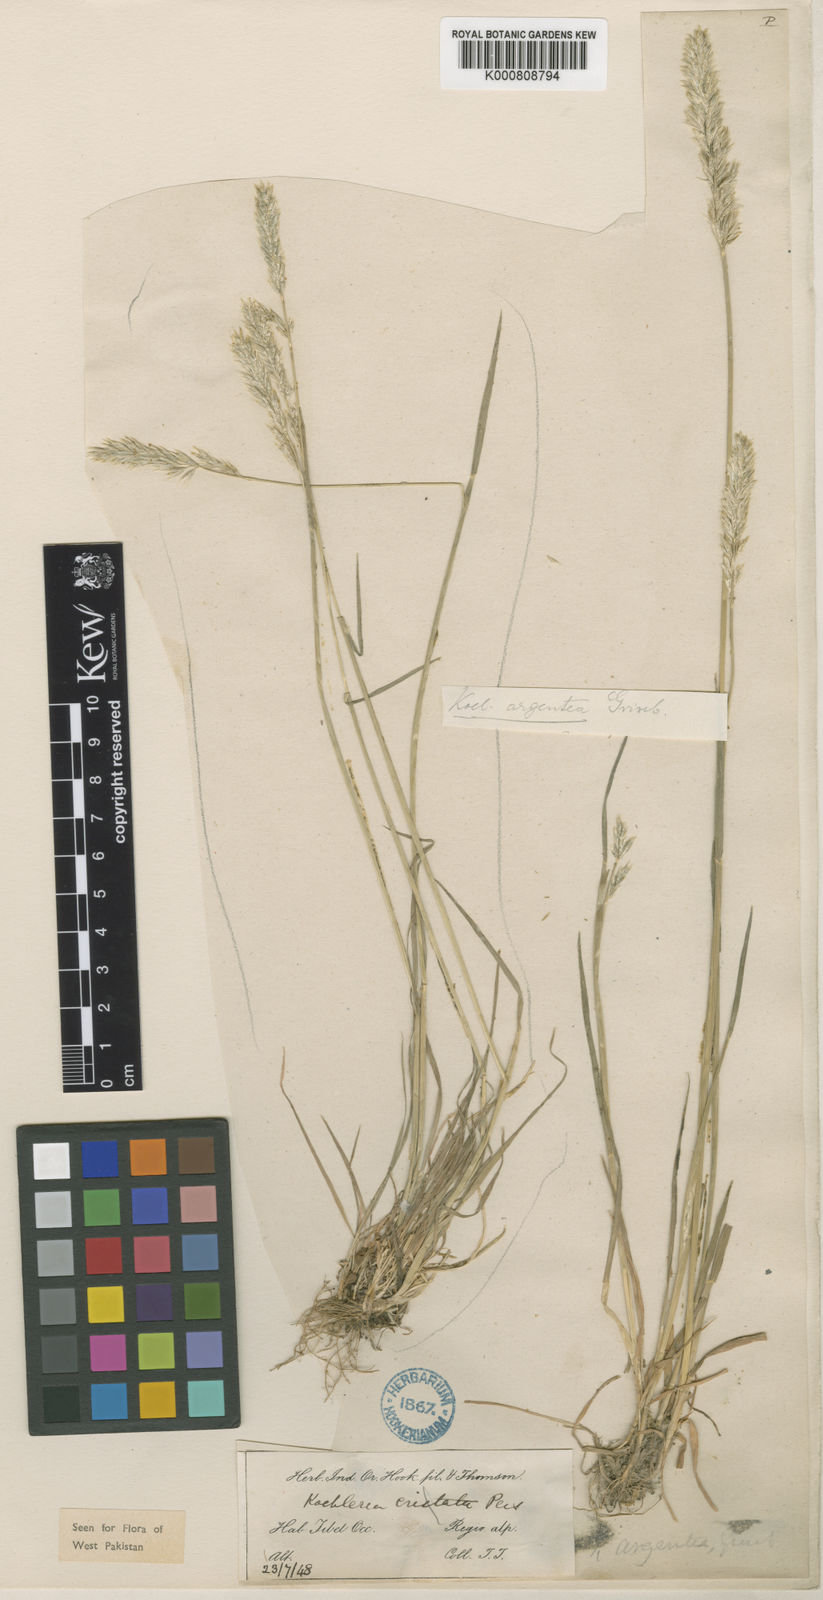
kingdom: Plantae
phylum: Tracheophyta
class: Liliopsida
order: Poales
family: Poaceae
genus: Koeleria
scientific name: Koeleria argentea
